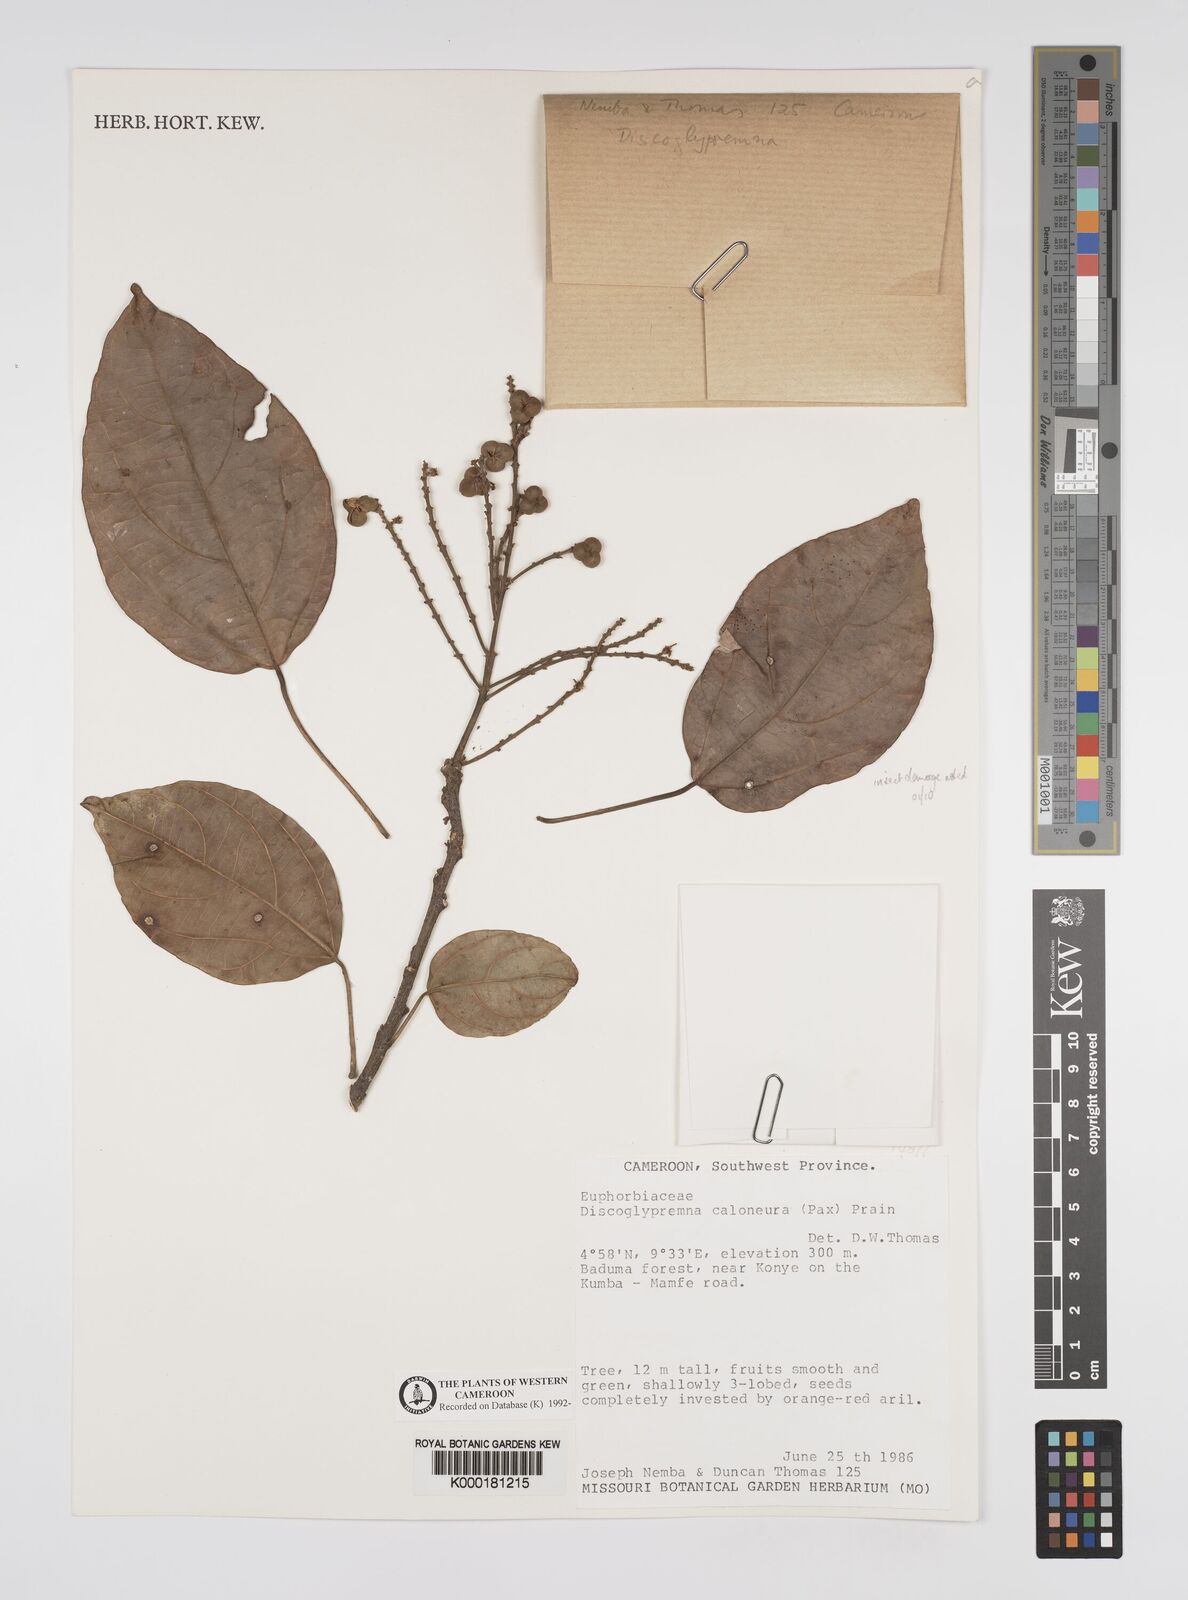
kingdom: Plantae
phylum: Tracheophyta
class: Magnoliopsida
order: Malpighiales
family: Euphorbiaceae
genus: Discoglypremna
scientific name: Discoglypremna caloneura
